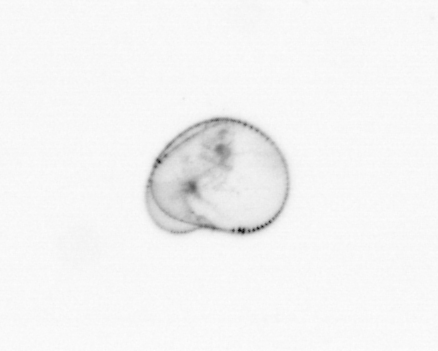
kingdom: Chromista
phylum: Myzozoa
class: Dinophyceae
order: Noctilucales
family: Noctilucaceae
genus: Noctiluca
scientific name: Noctiluca scintillans
